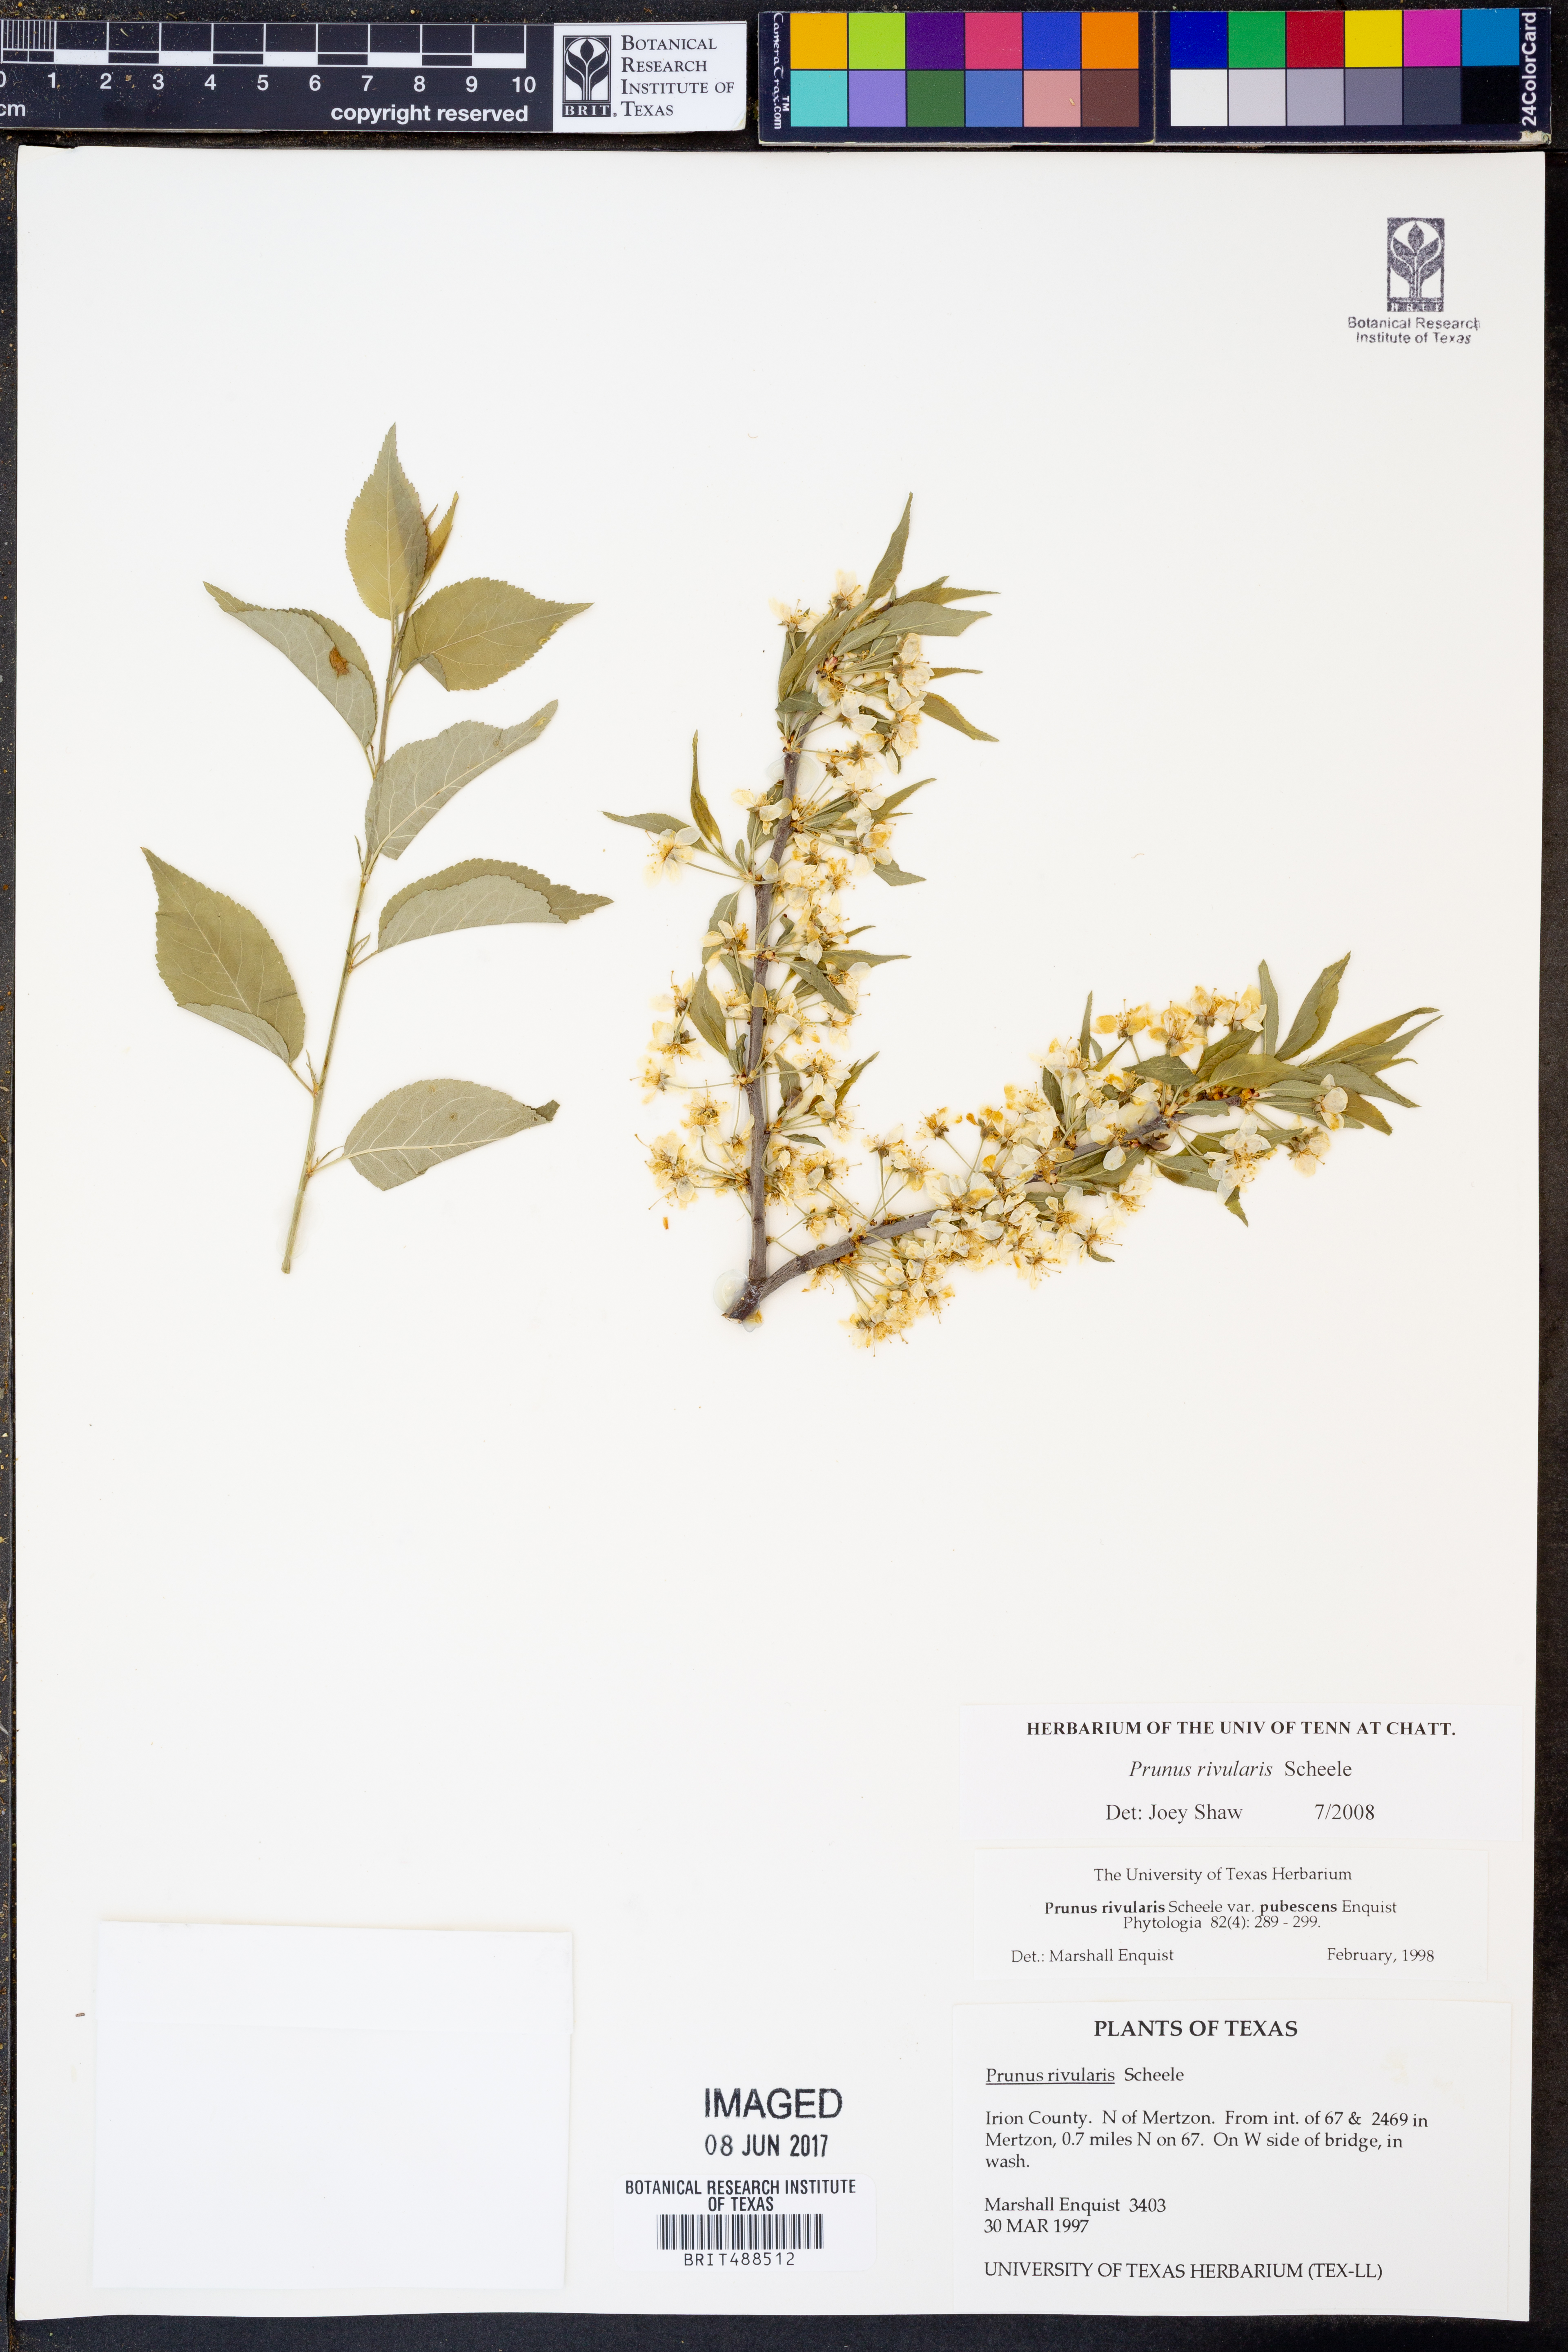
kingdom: Plantae
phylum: Tracheophyta
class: Magnoliopsida
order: Rosales
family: Rosaceae
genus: Prunus
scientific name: Prunus rivularis
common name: Creek plum
